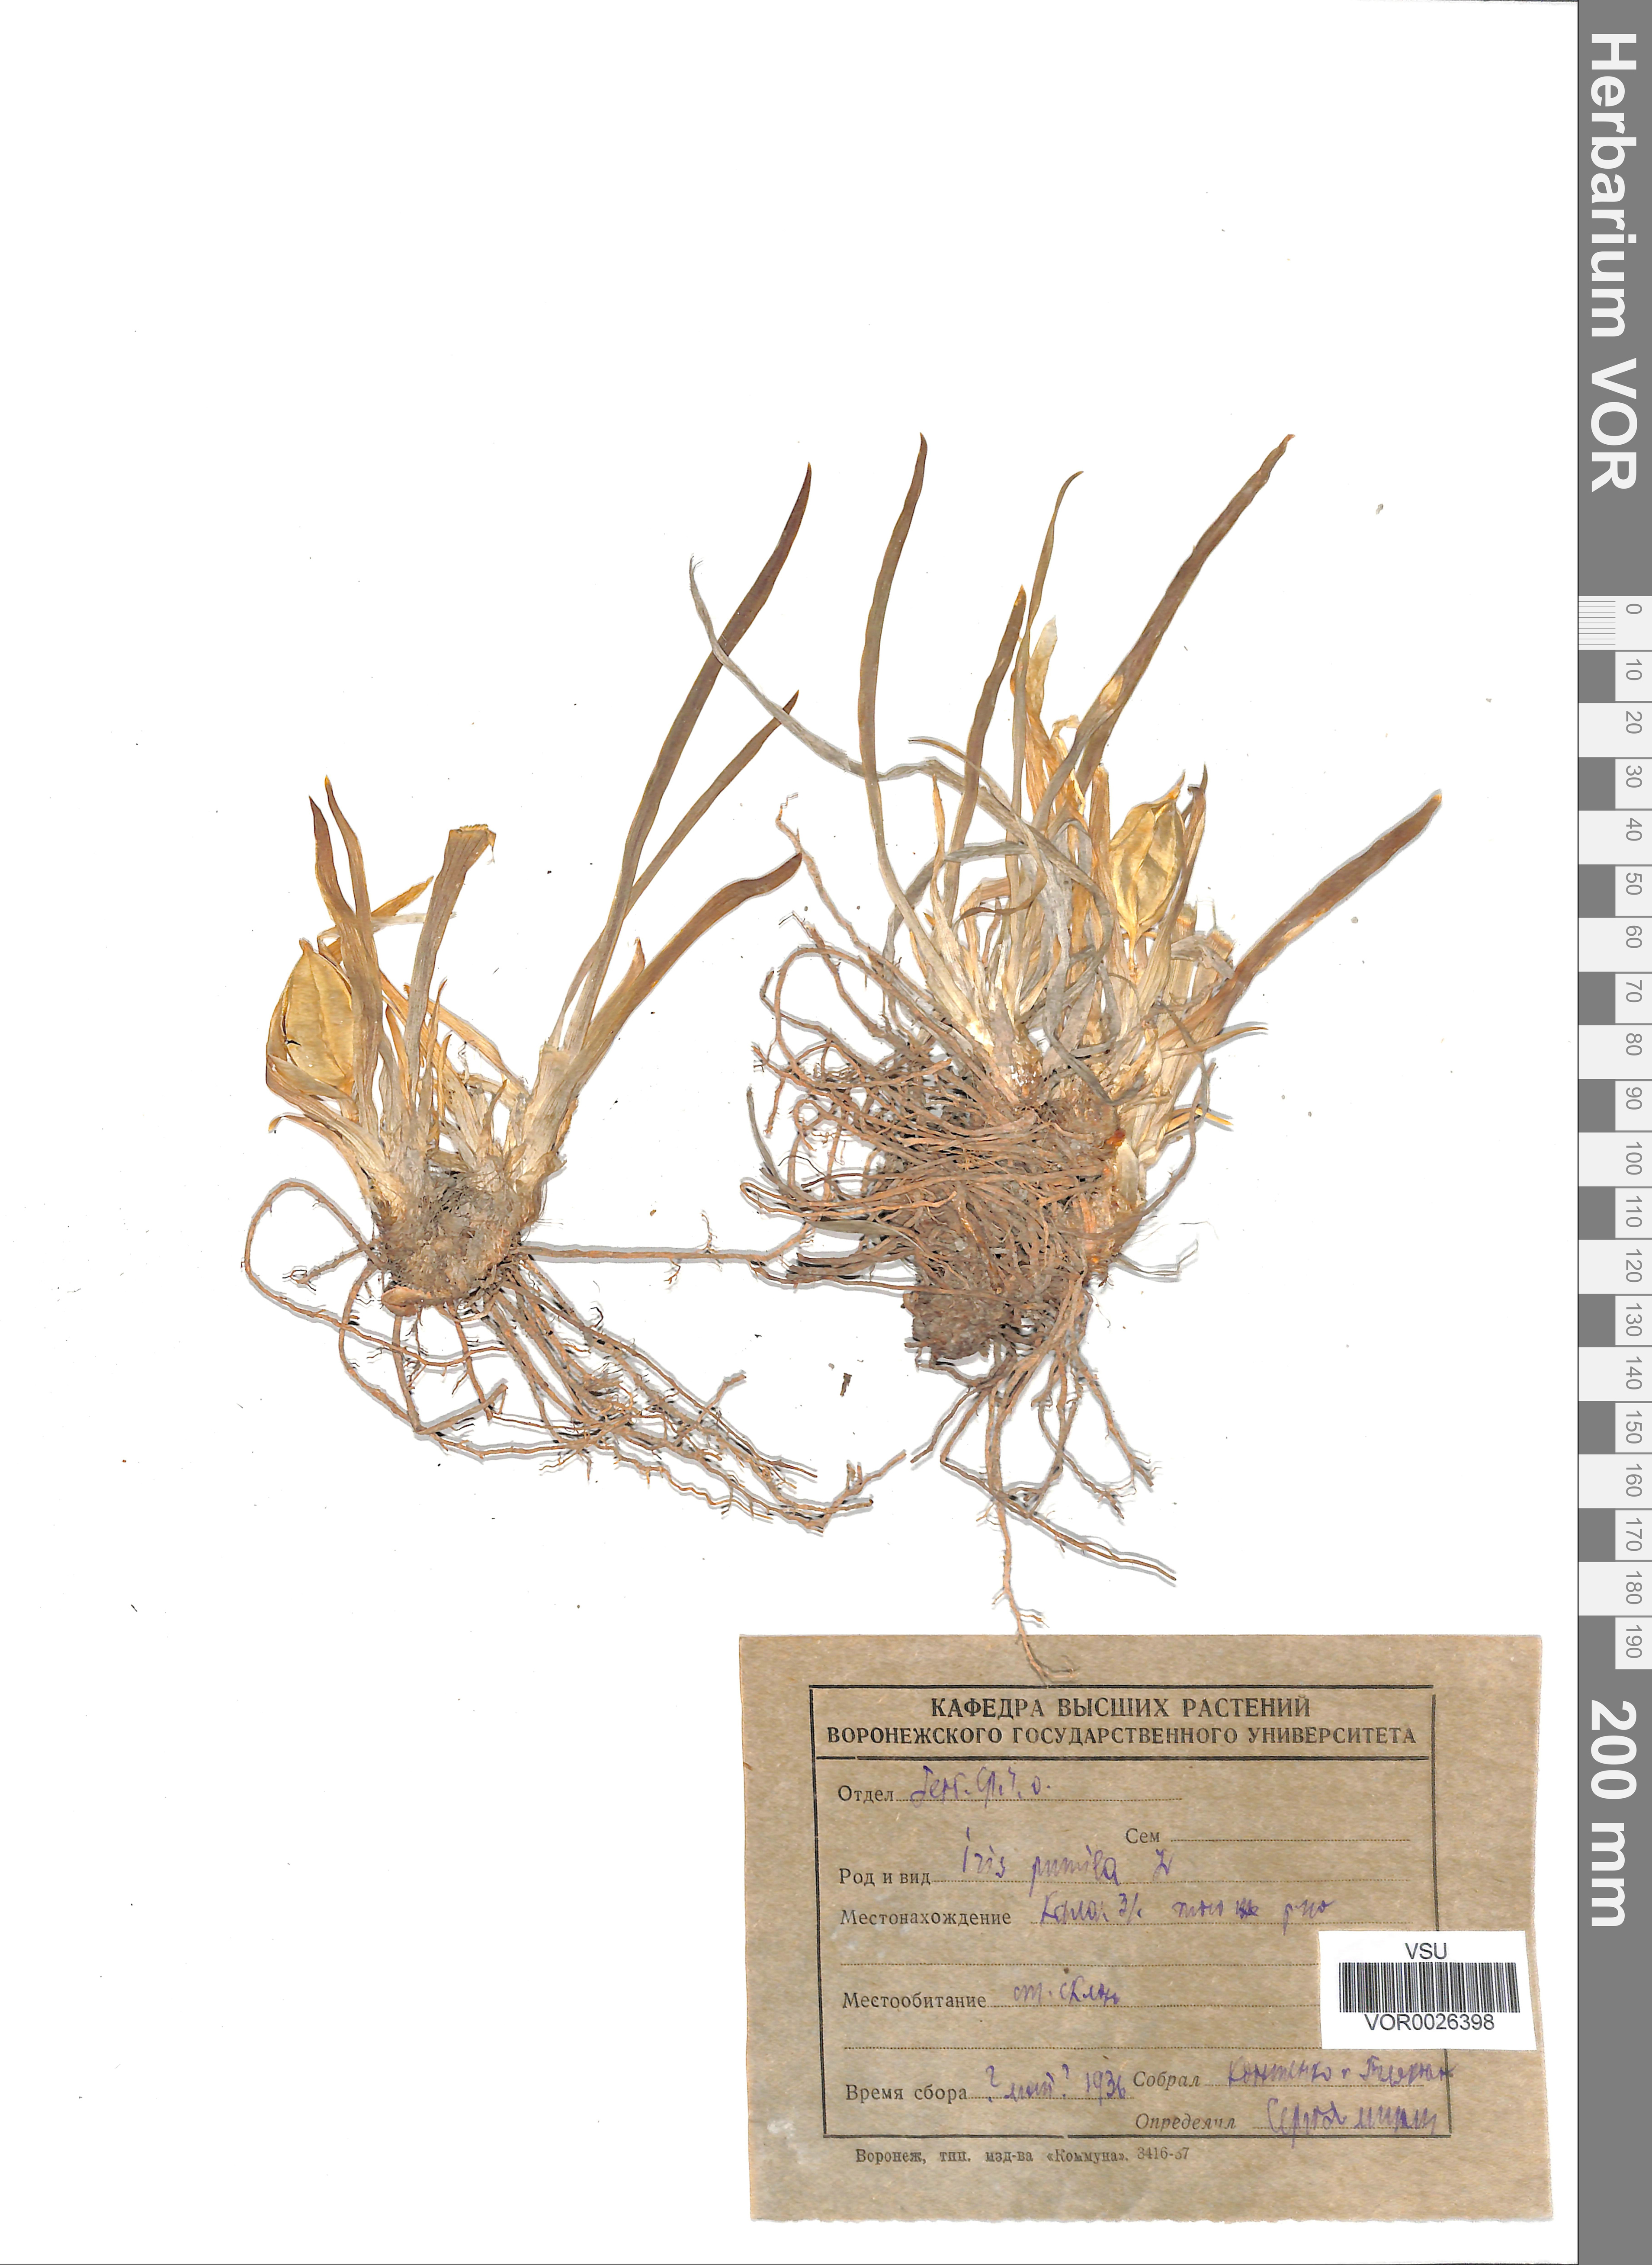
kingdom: Plantae
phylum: Tracheophyta
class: Liliopsida
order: Asparagales
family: Iridaceae
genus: Iris
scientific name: Iris pumila
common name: Dwarf iris
